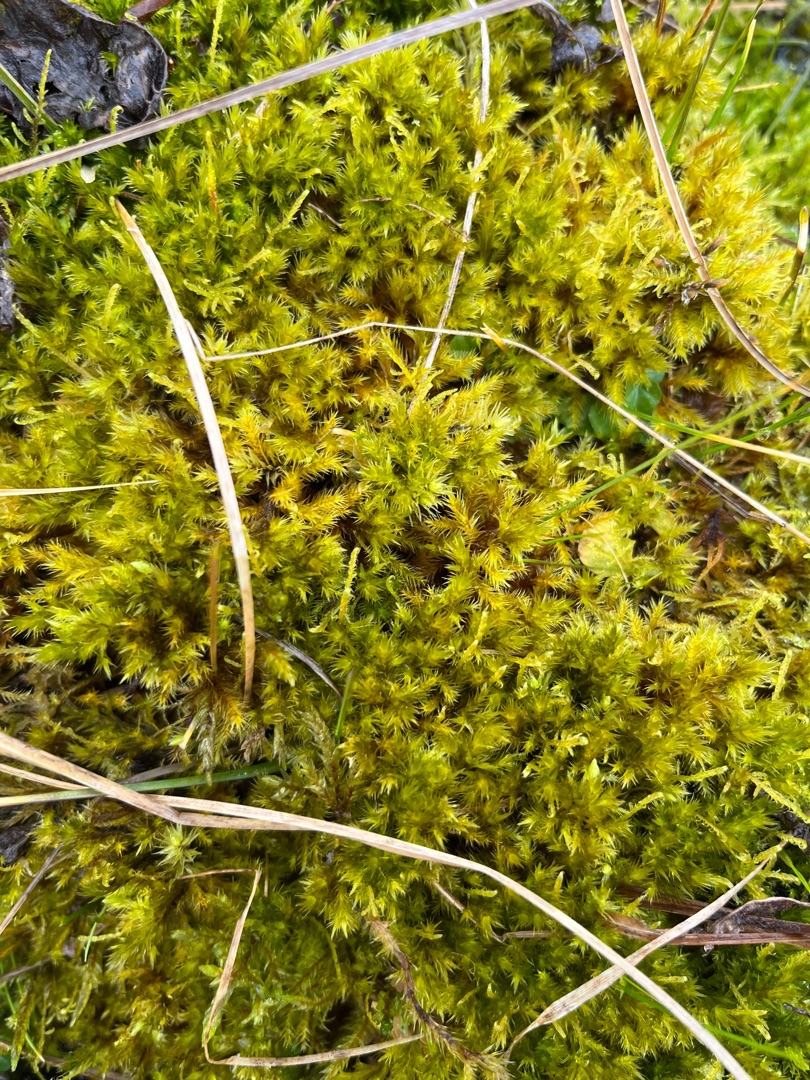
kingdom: Plantae
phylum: Bryophyta
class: Bryopsida
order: Hypnales
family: Amblystegiaceae
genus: Tomentypnum
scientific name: Tomentypnum nitens
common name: Glinsende kærmos
